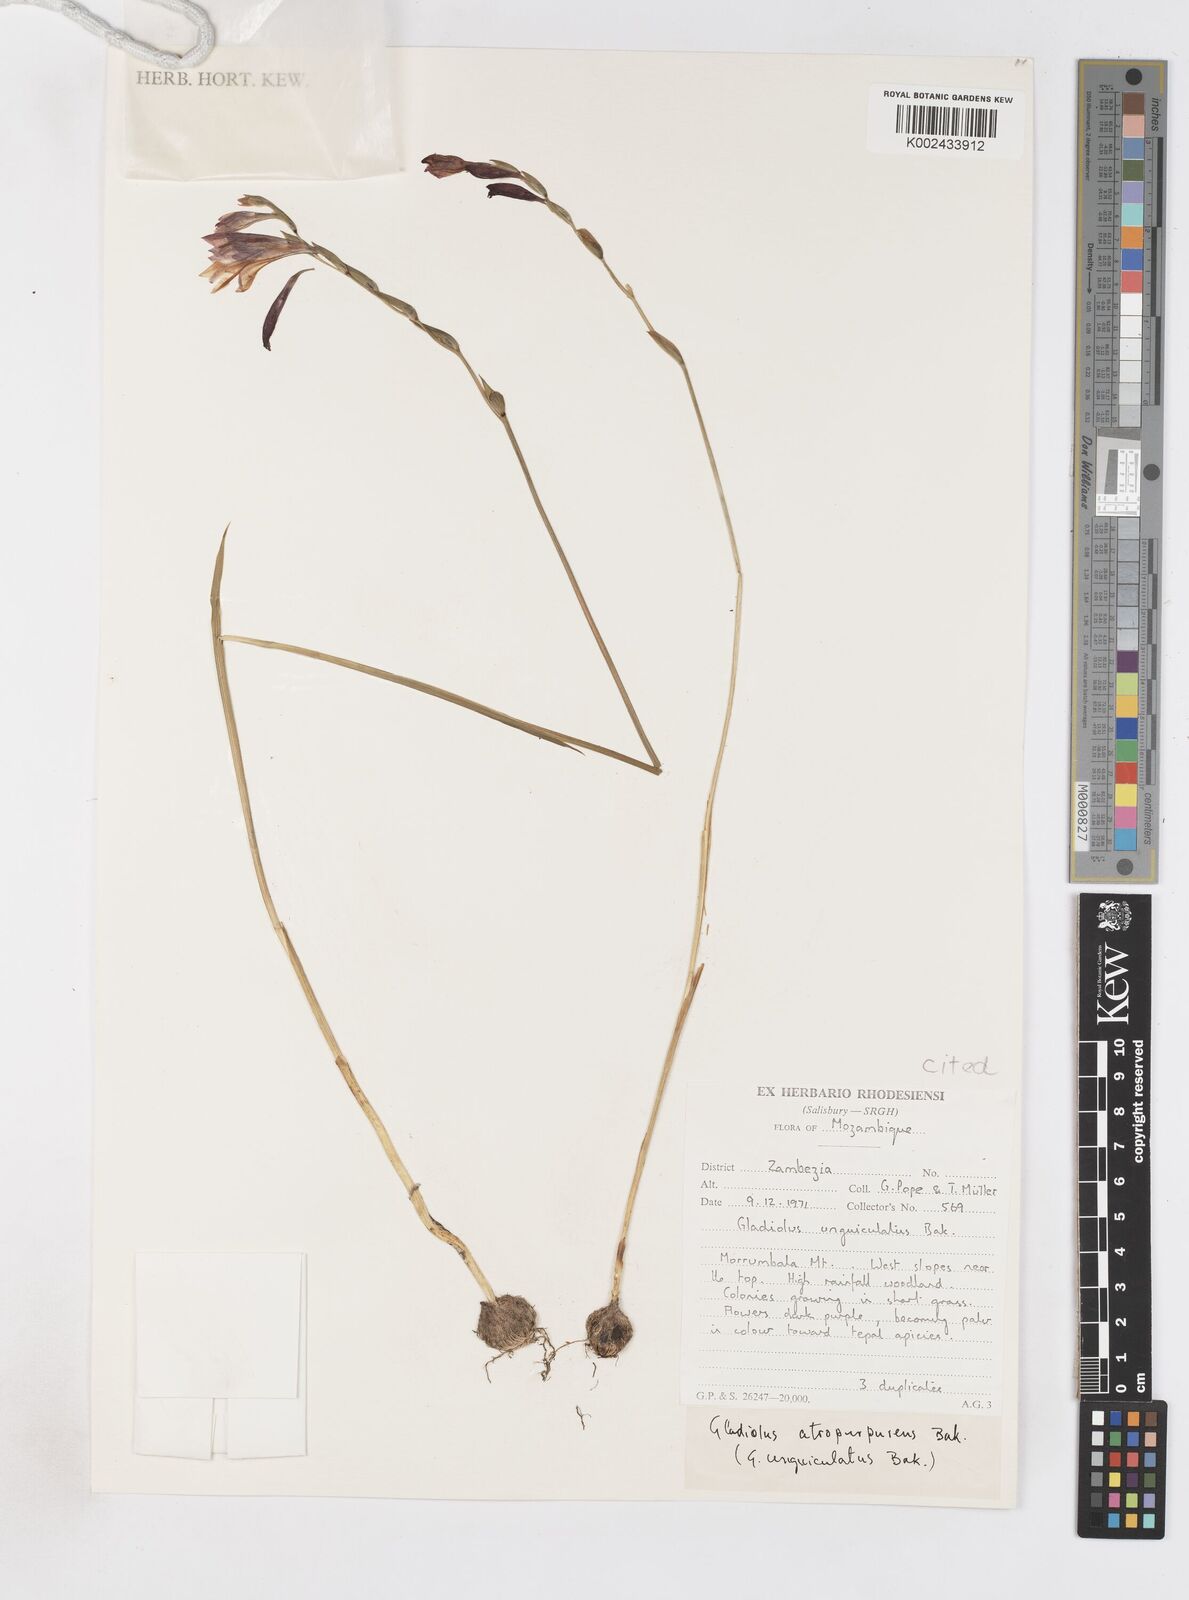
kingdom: Plantae
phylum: Tracheophyta
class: Liliopsida
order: Asparagales
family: Iridaceae
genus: Gladiolus
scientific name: Gladiolus atropurpureus
